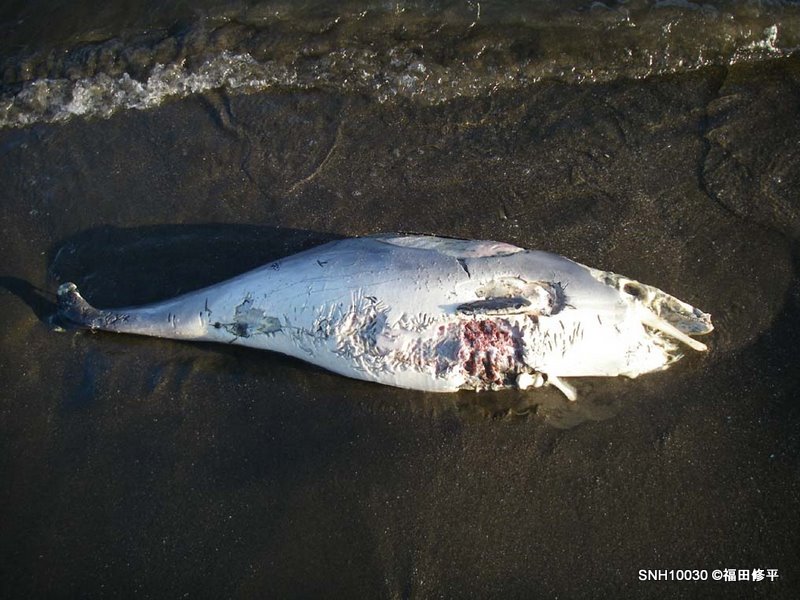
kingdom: Animalia
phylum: Chordata
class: Mammalia
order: Cetacea
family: Phocoenidae
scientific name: Phocoenidae
